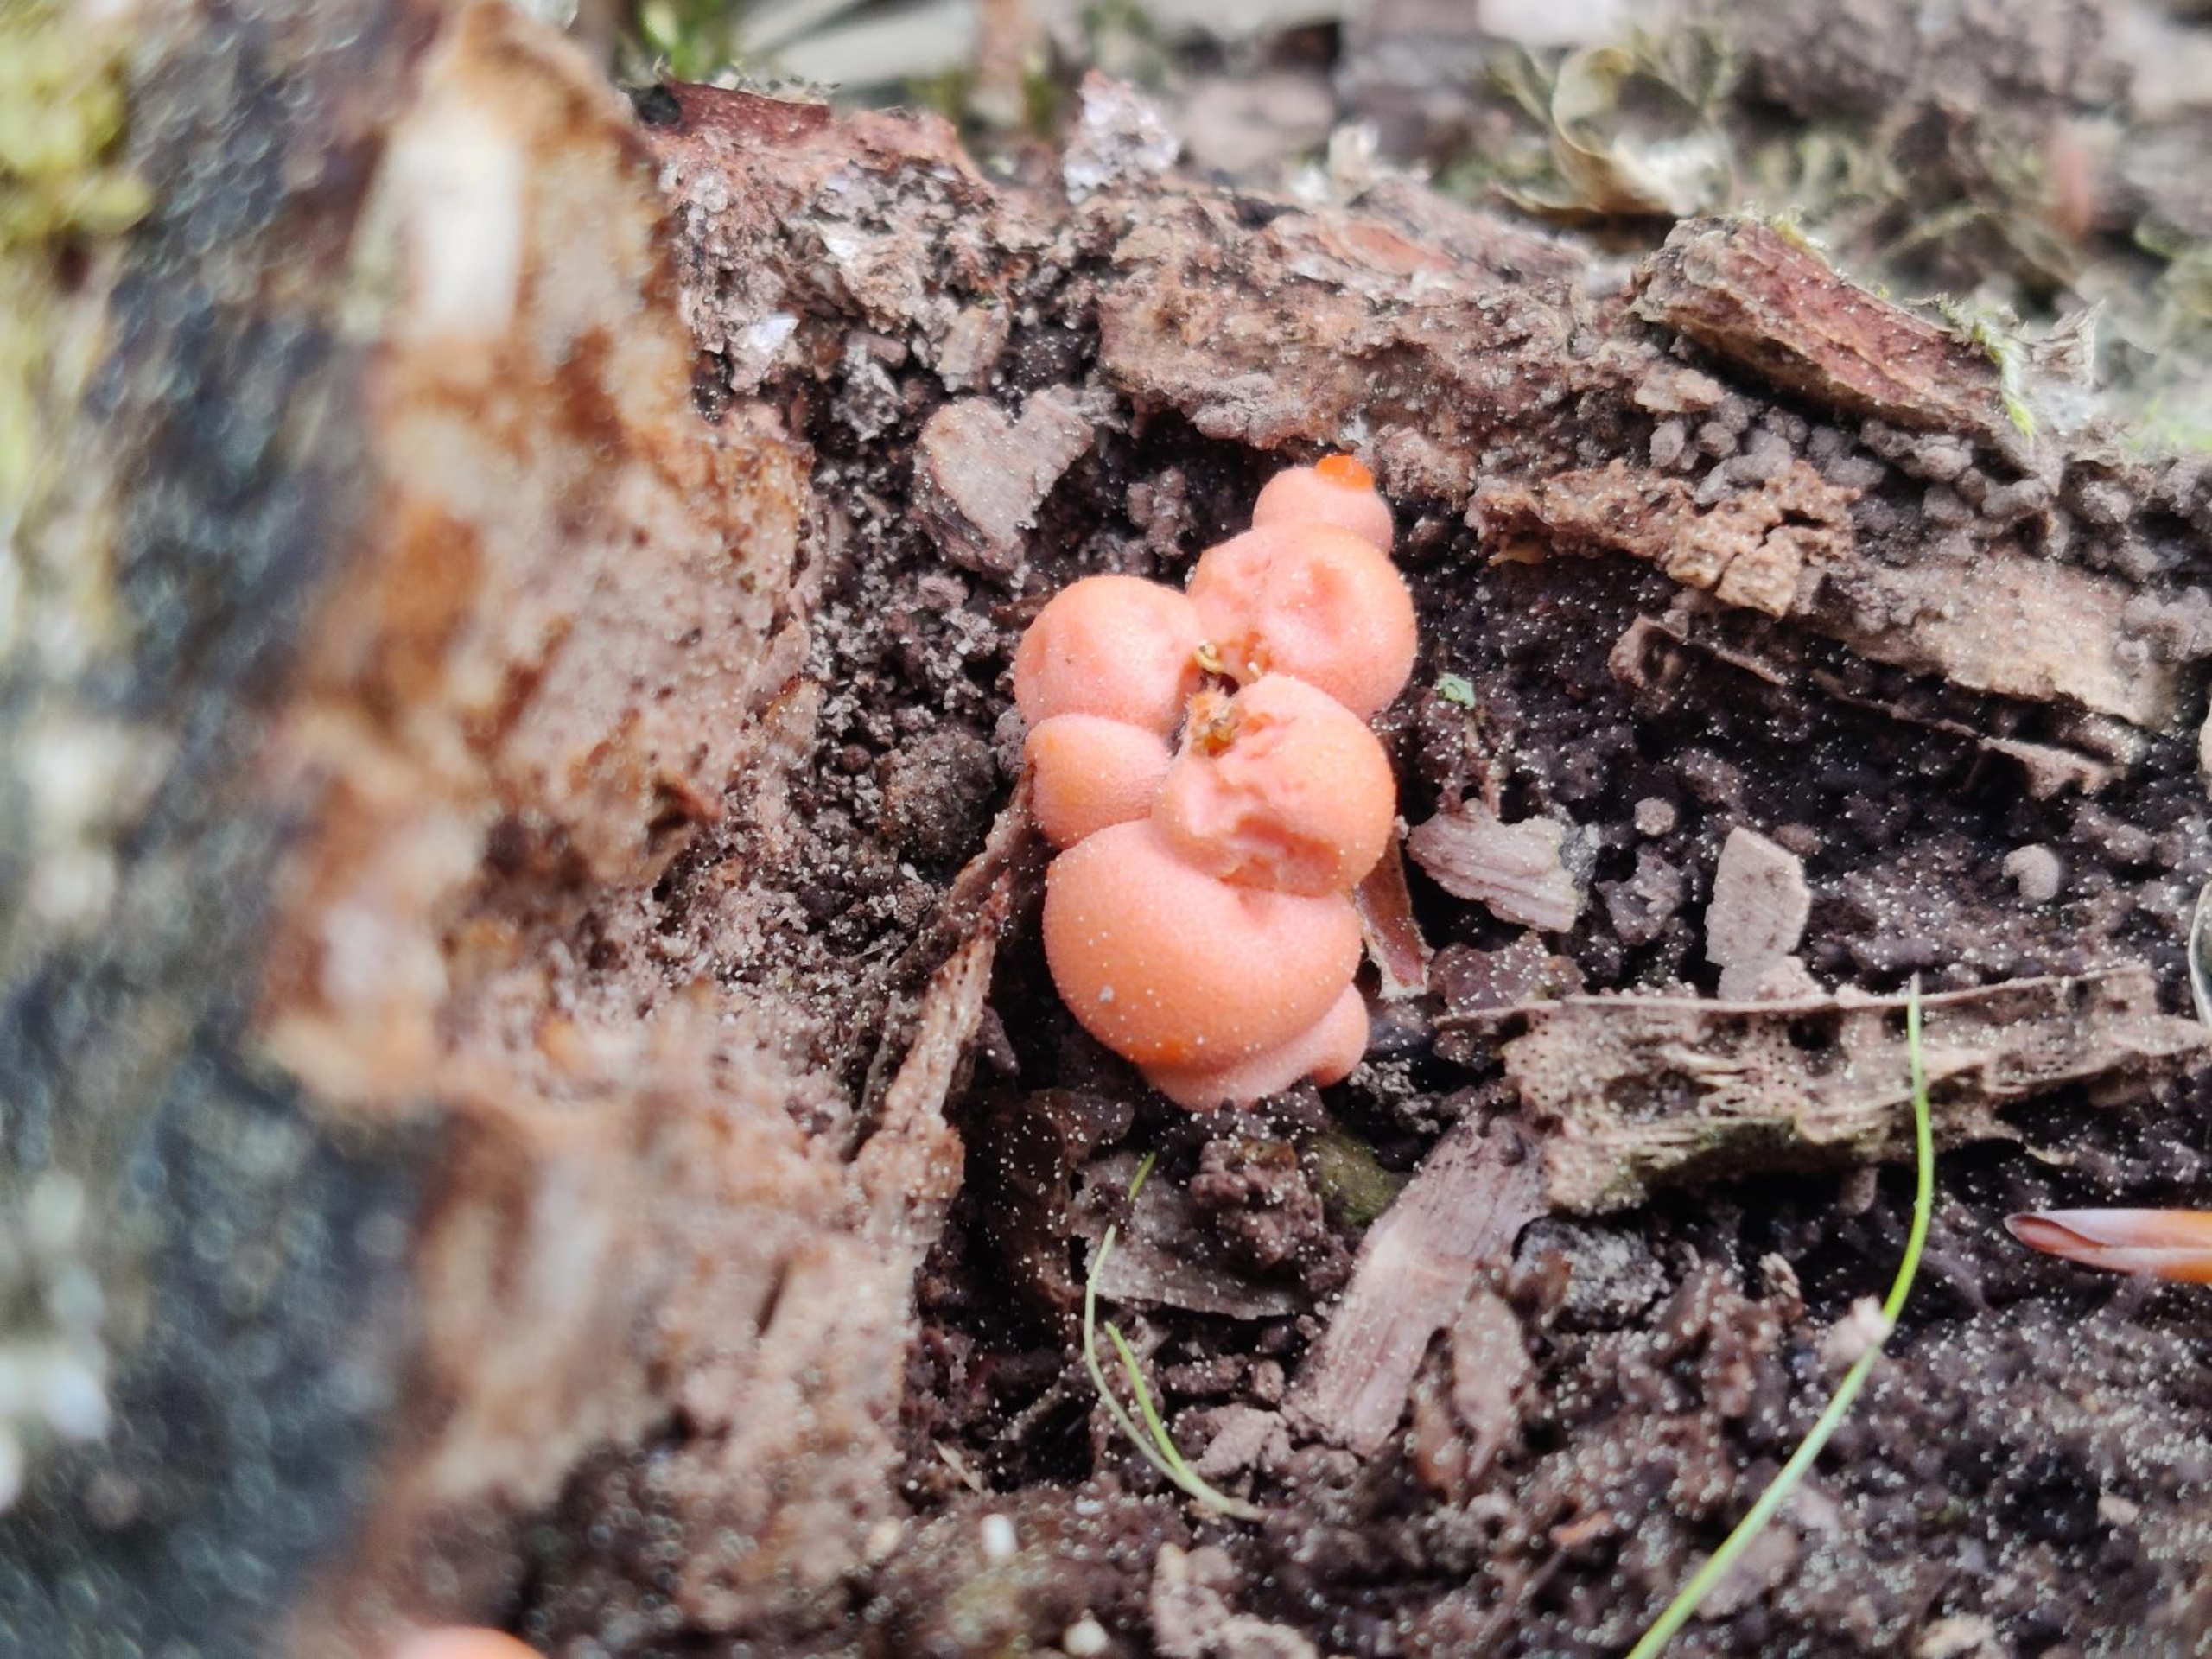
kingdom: Protozoa
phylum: Mycetozoa
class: Myxomycetes
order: Cribrariales
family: Tubiferaceae
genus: Lycogala
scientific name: Lycogala epidendrum
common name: Almindelig rødært
